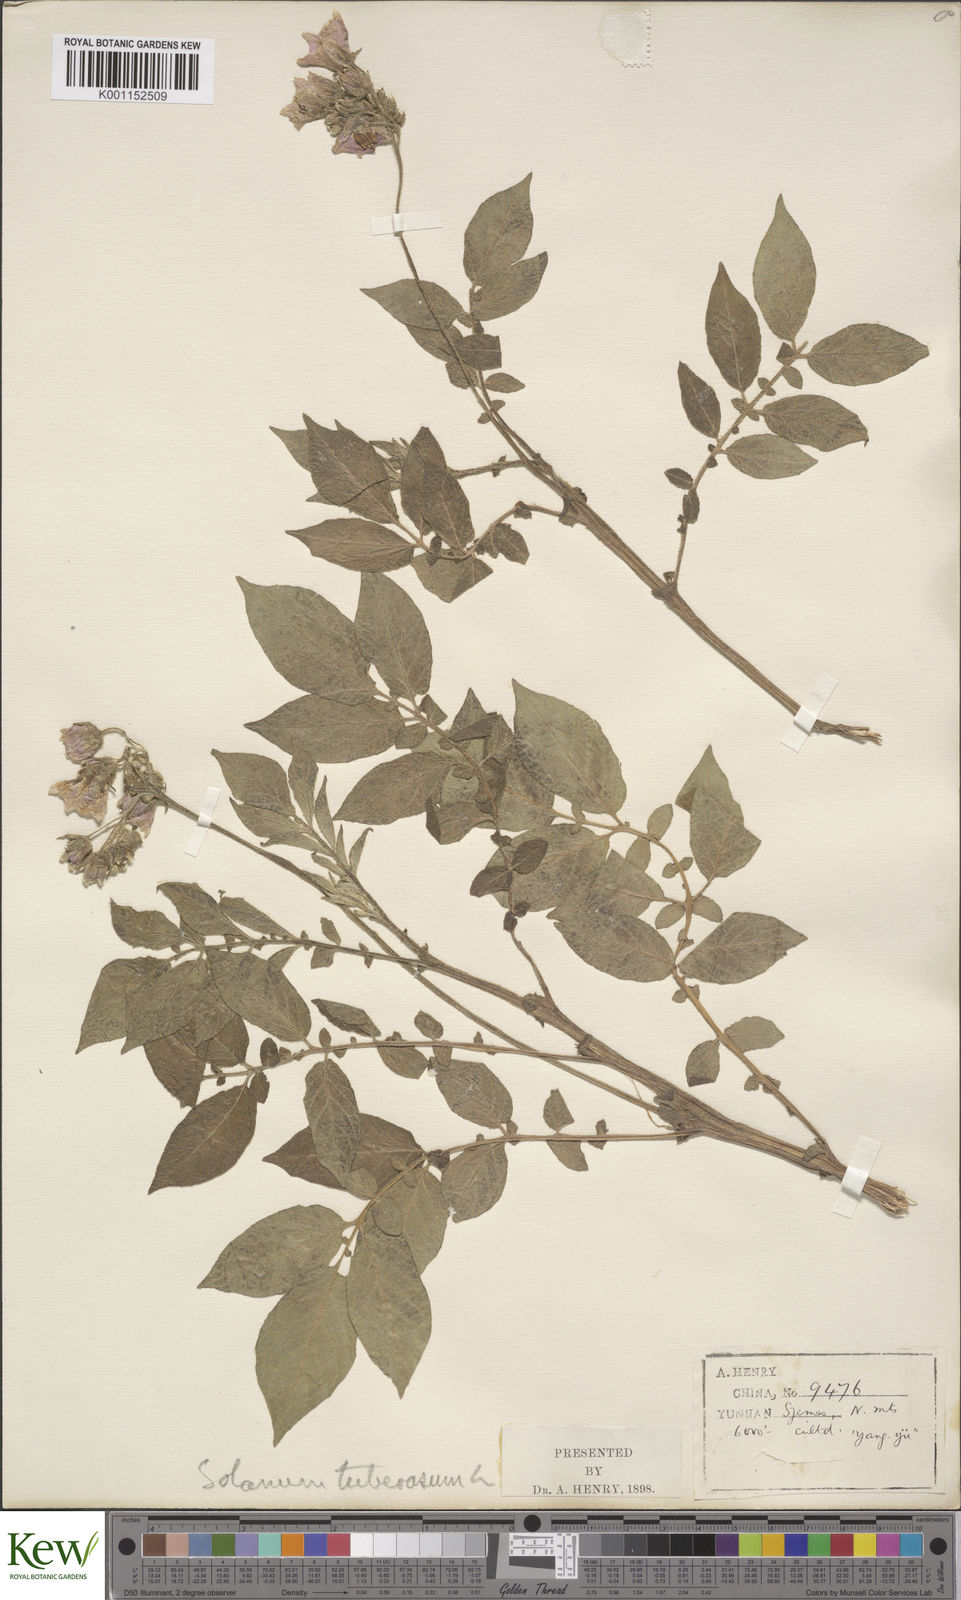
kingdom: Plantae
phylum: Tracheophyta
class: Magnoliopsida
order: Solanales
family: Solanaceae
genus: Solanum
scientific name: Solanum tuberosum
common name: Potato
